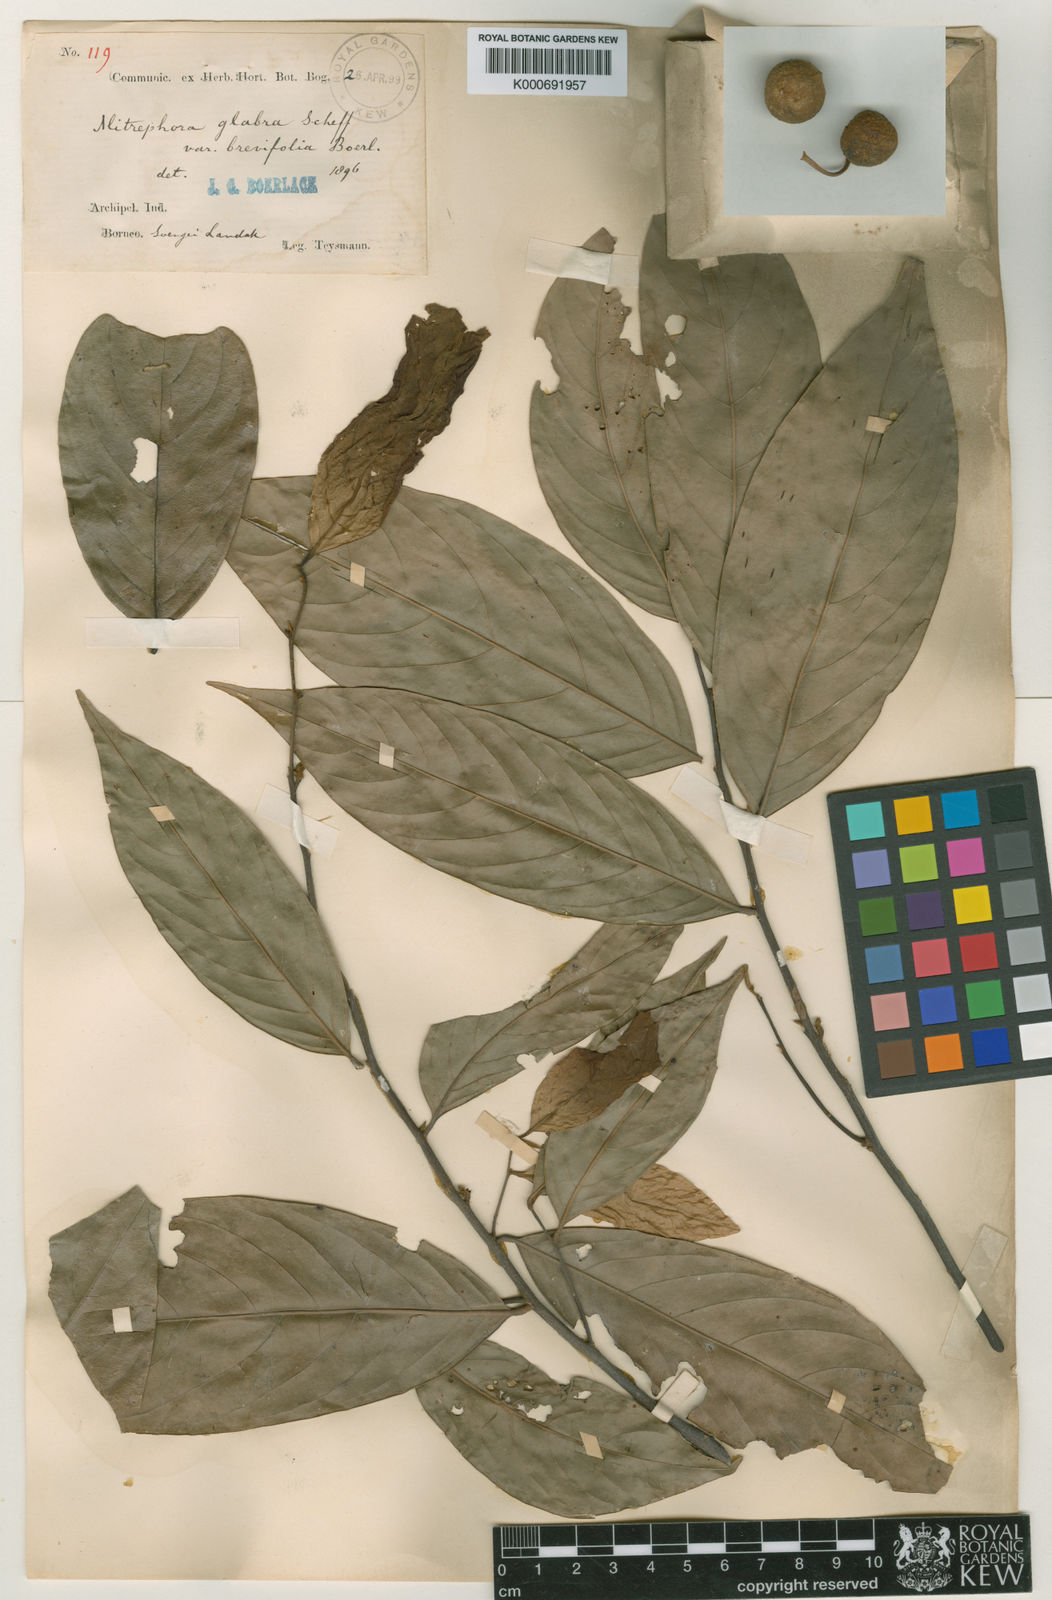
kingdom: Plantae
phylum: Tracheophyta
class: Magnoliopsida
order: Magnoliales
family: Annonaceae
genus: Mitrephora
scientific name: Mitrephora glabra
